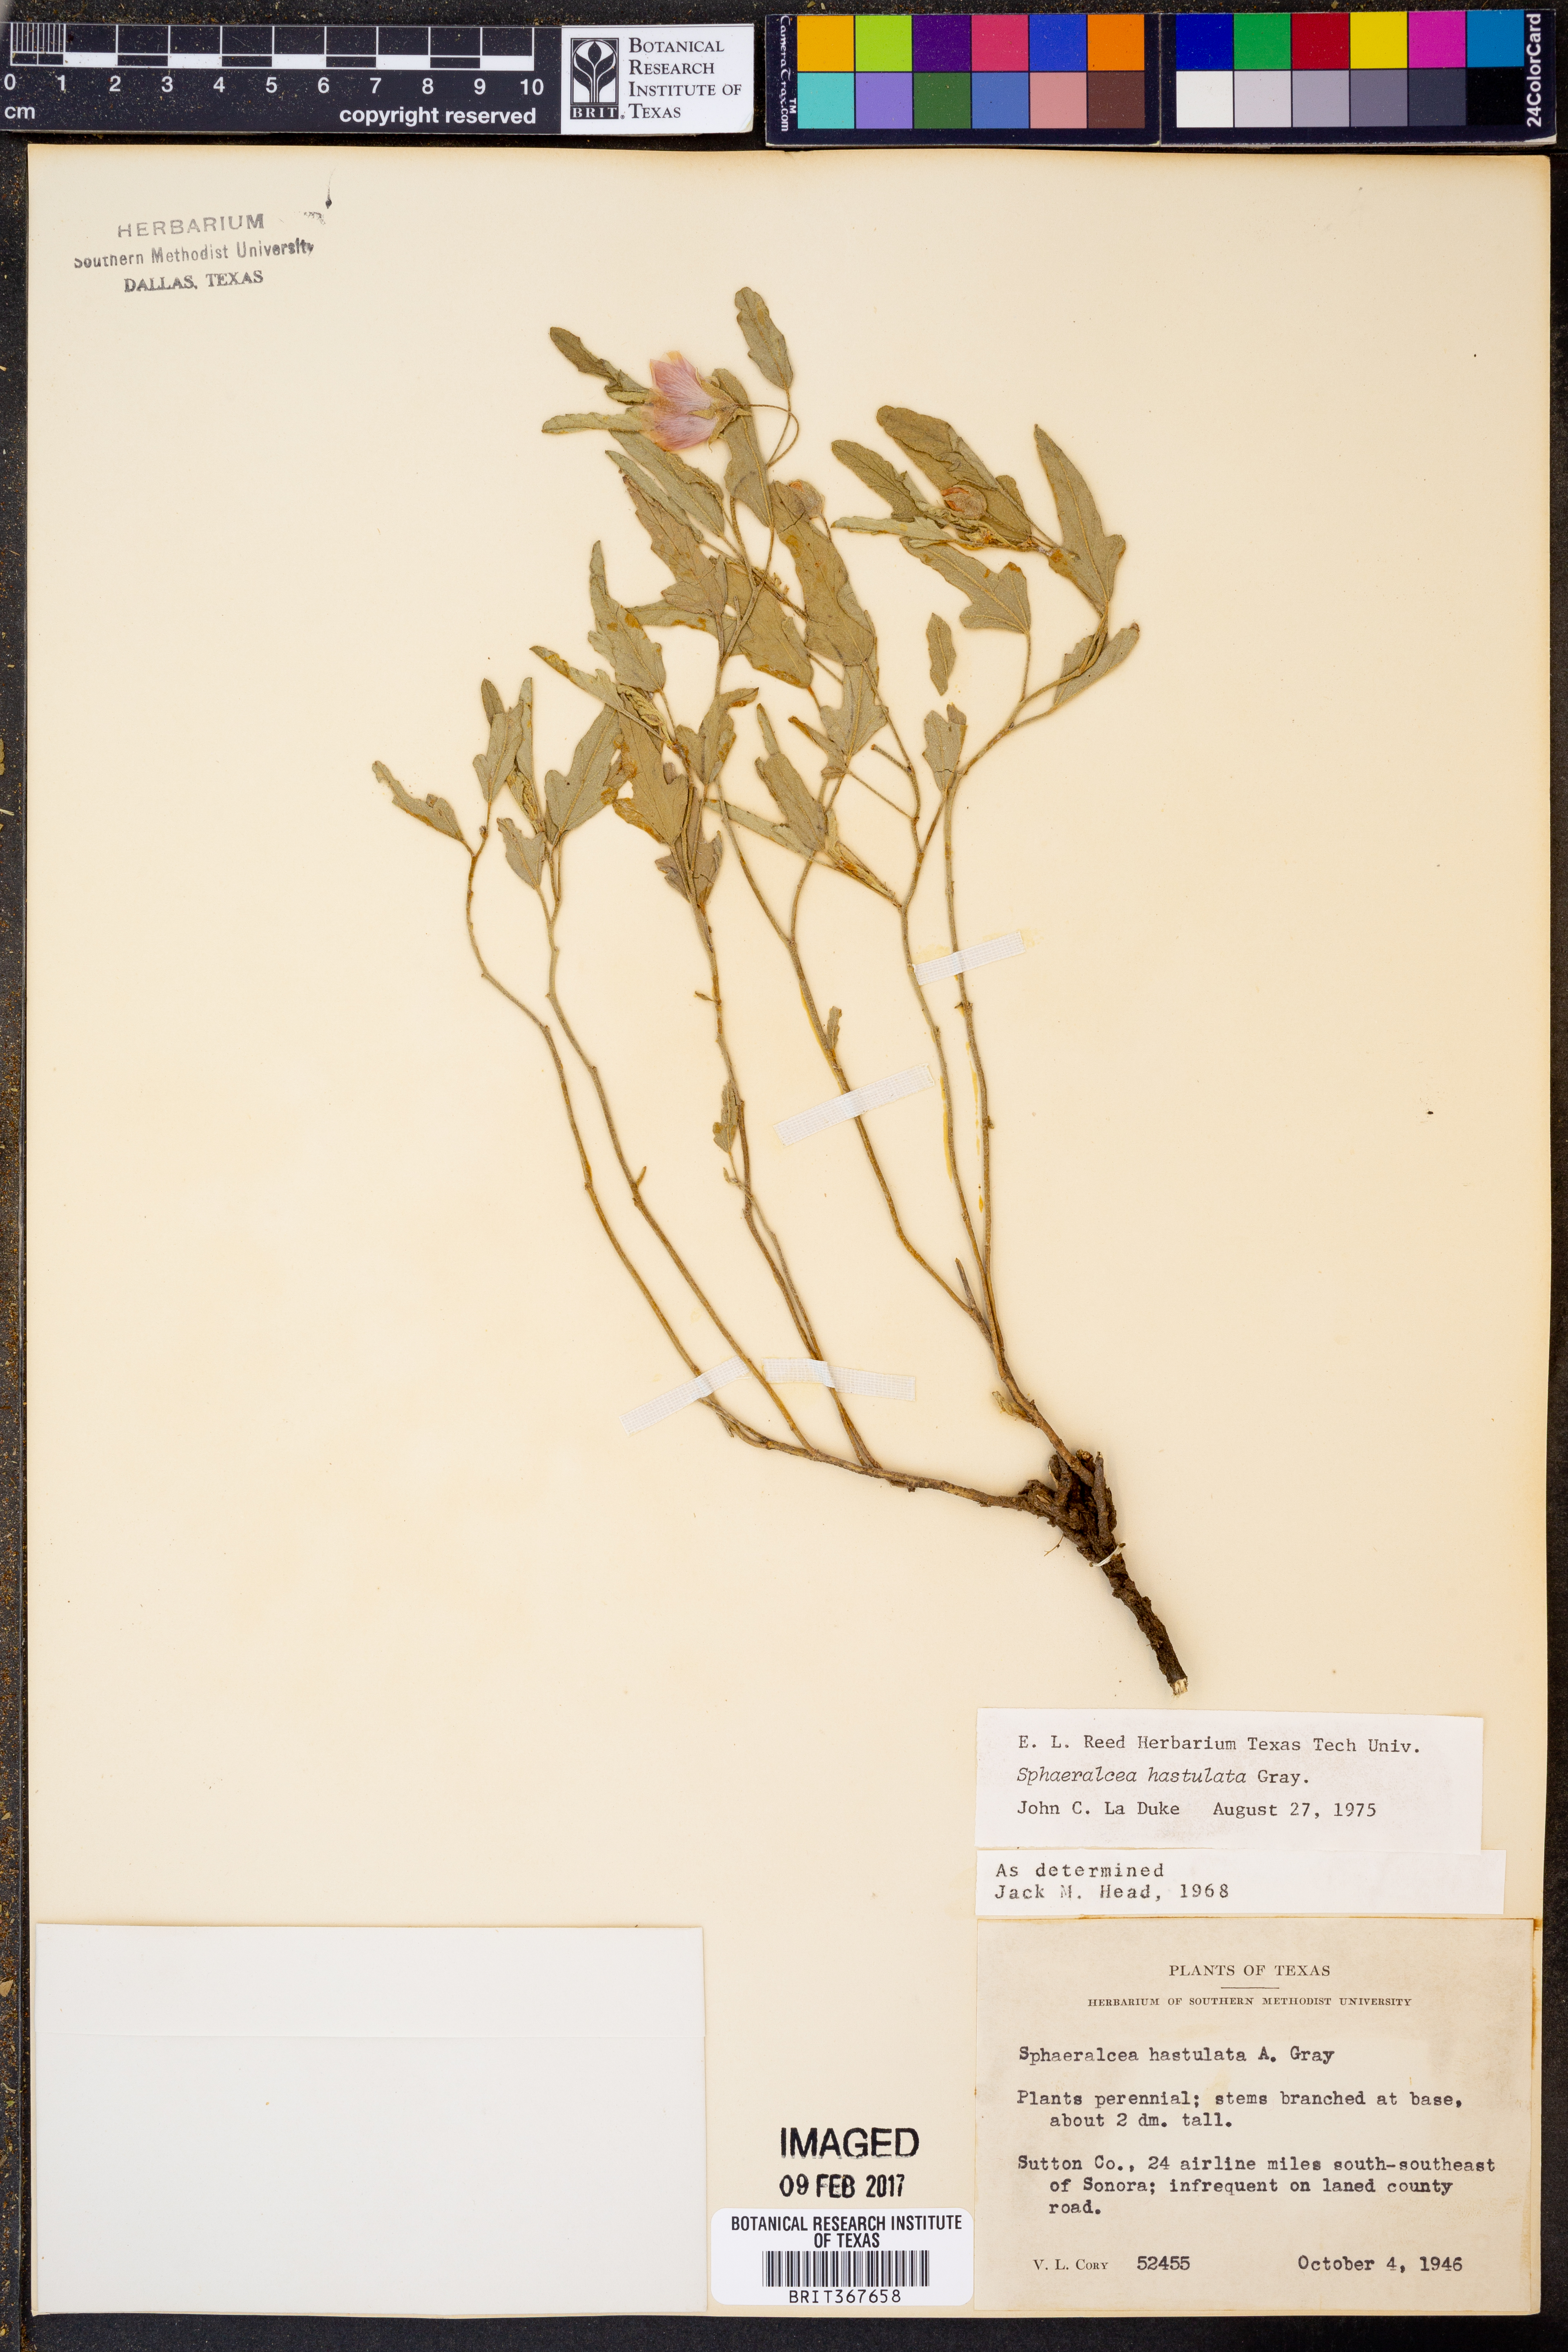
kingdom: Plantae
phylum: Tracheophyta
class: Magnoliopsida
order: Malvales
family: Malvaceae
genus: Sphaeralcea
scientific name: Sphaeralcea hastulata
